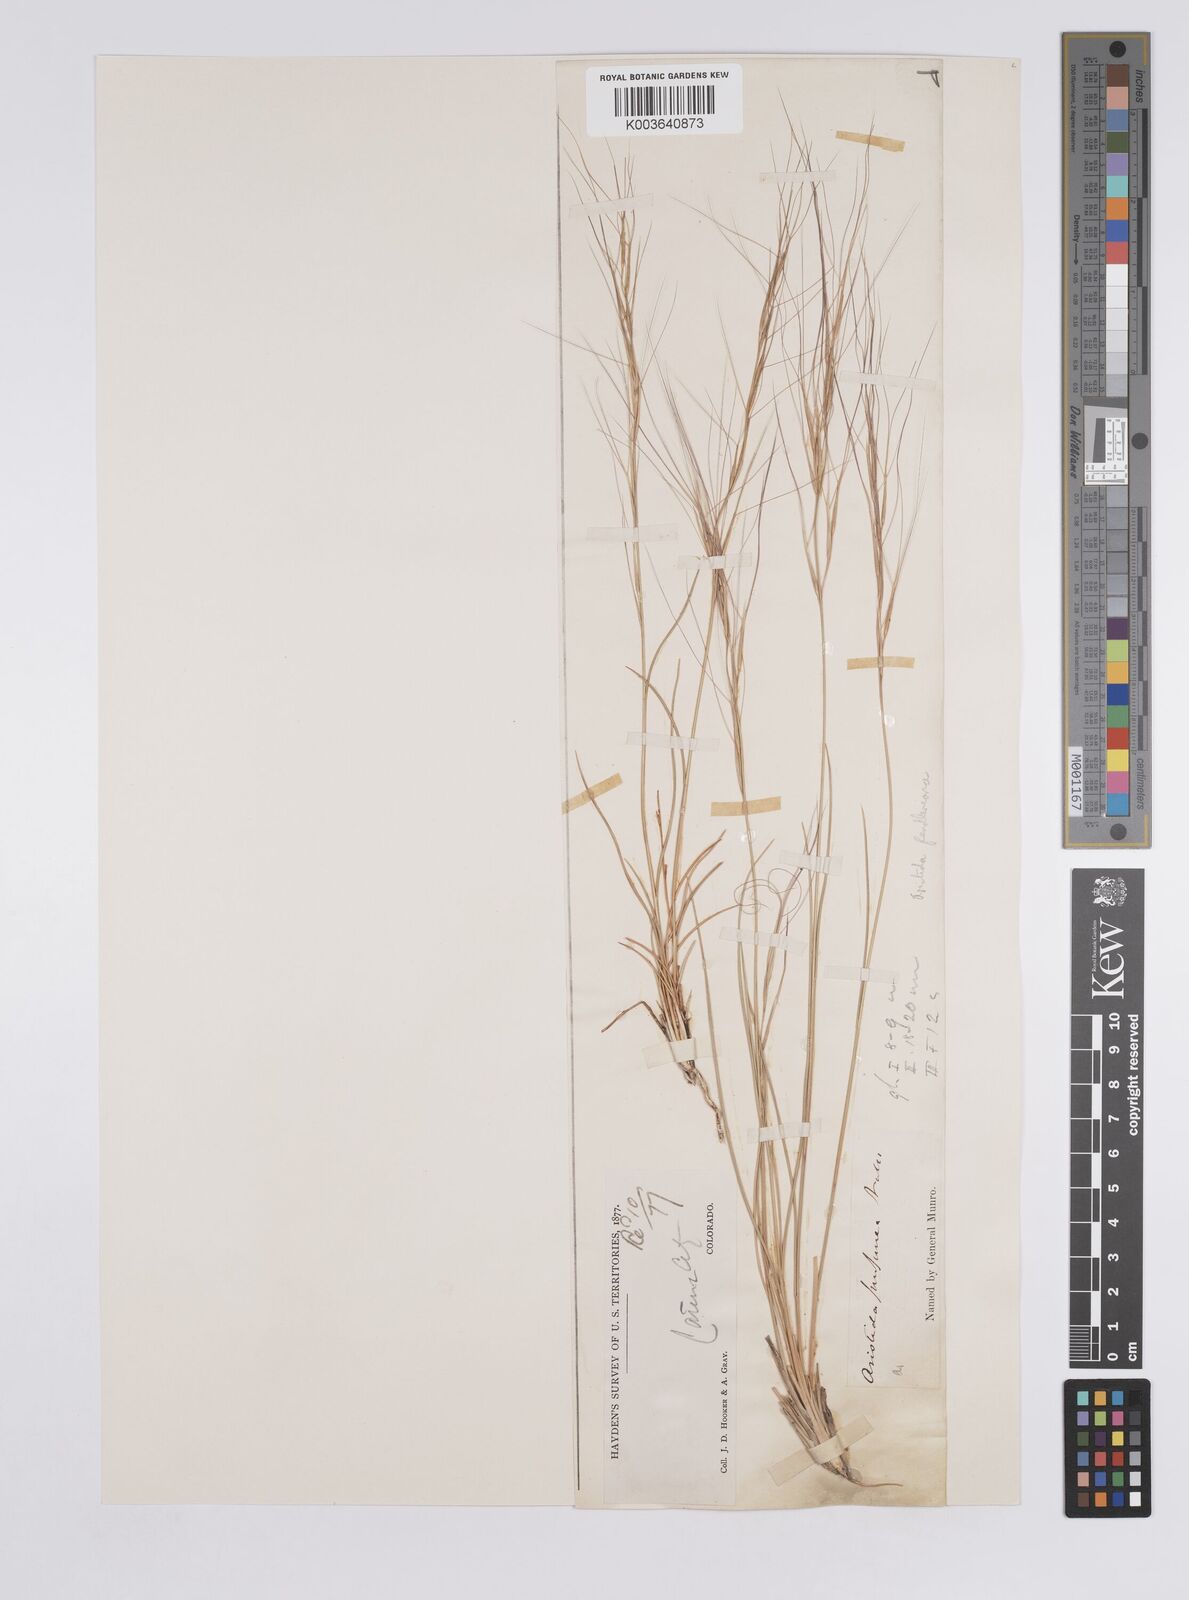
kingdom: Plantae
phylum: Tracheophyta
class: Liliopsida
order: Poales
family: Poaceae
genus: Aristida
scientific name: Aristida purpurea
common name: Purple threeawn
